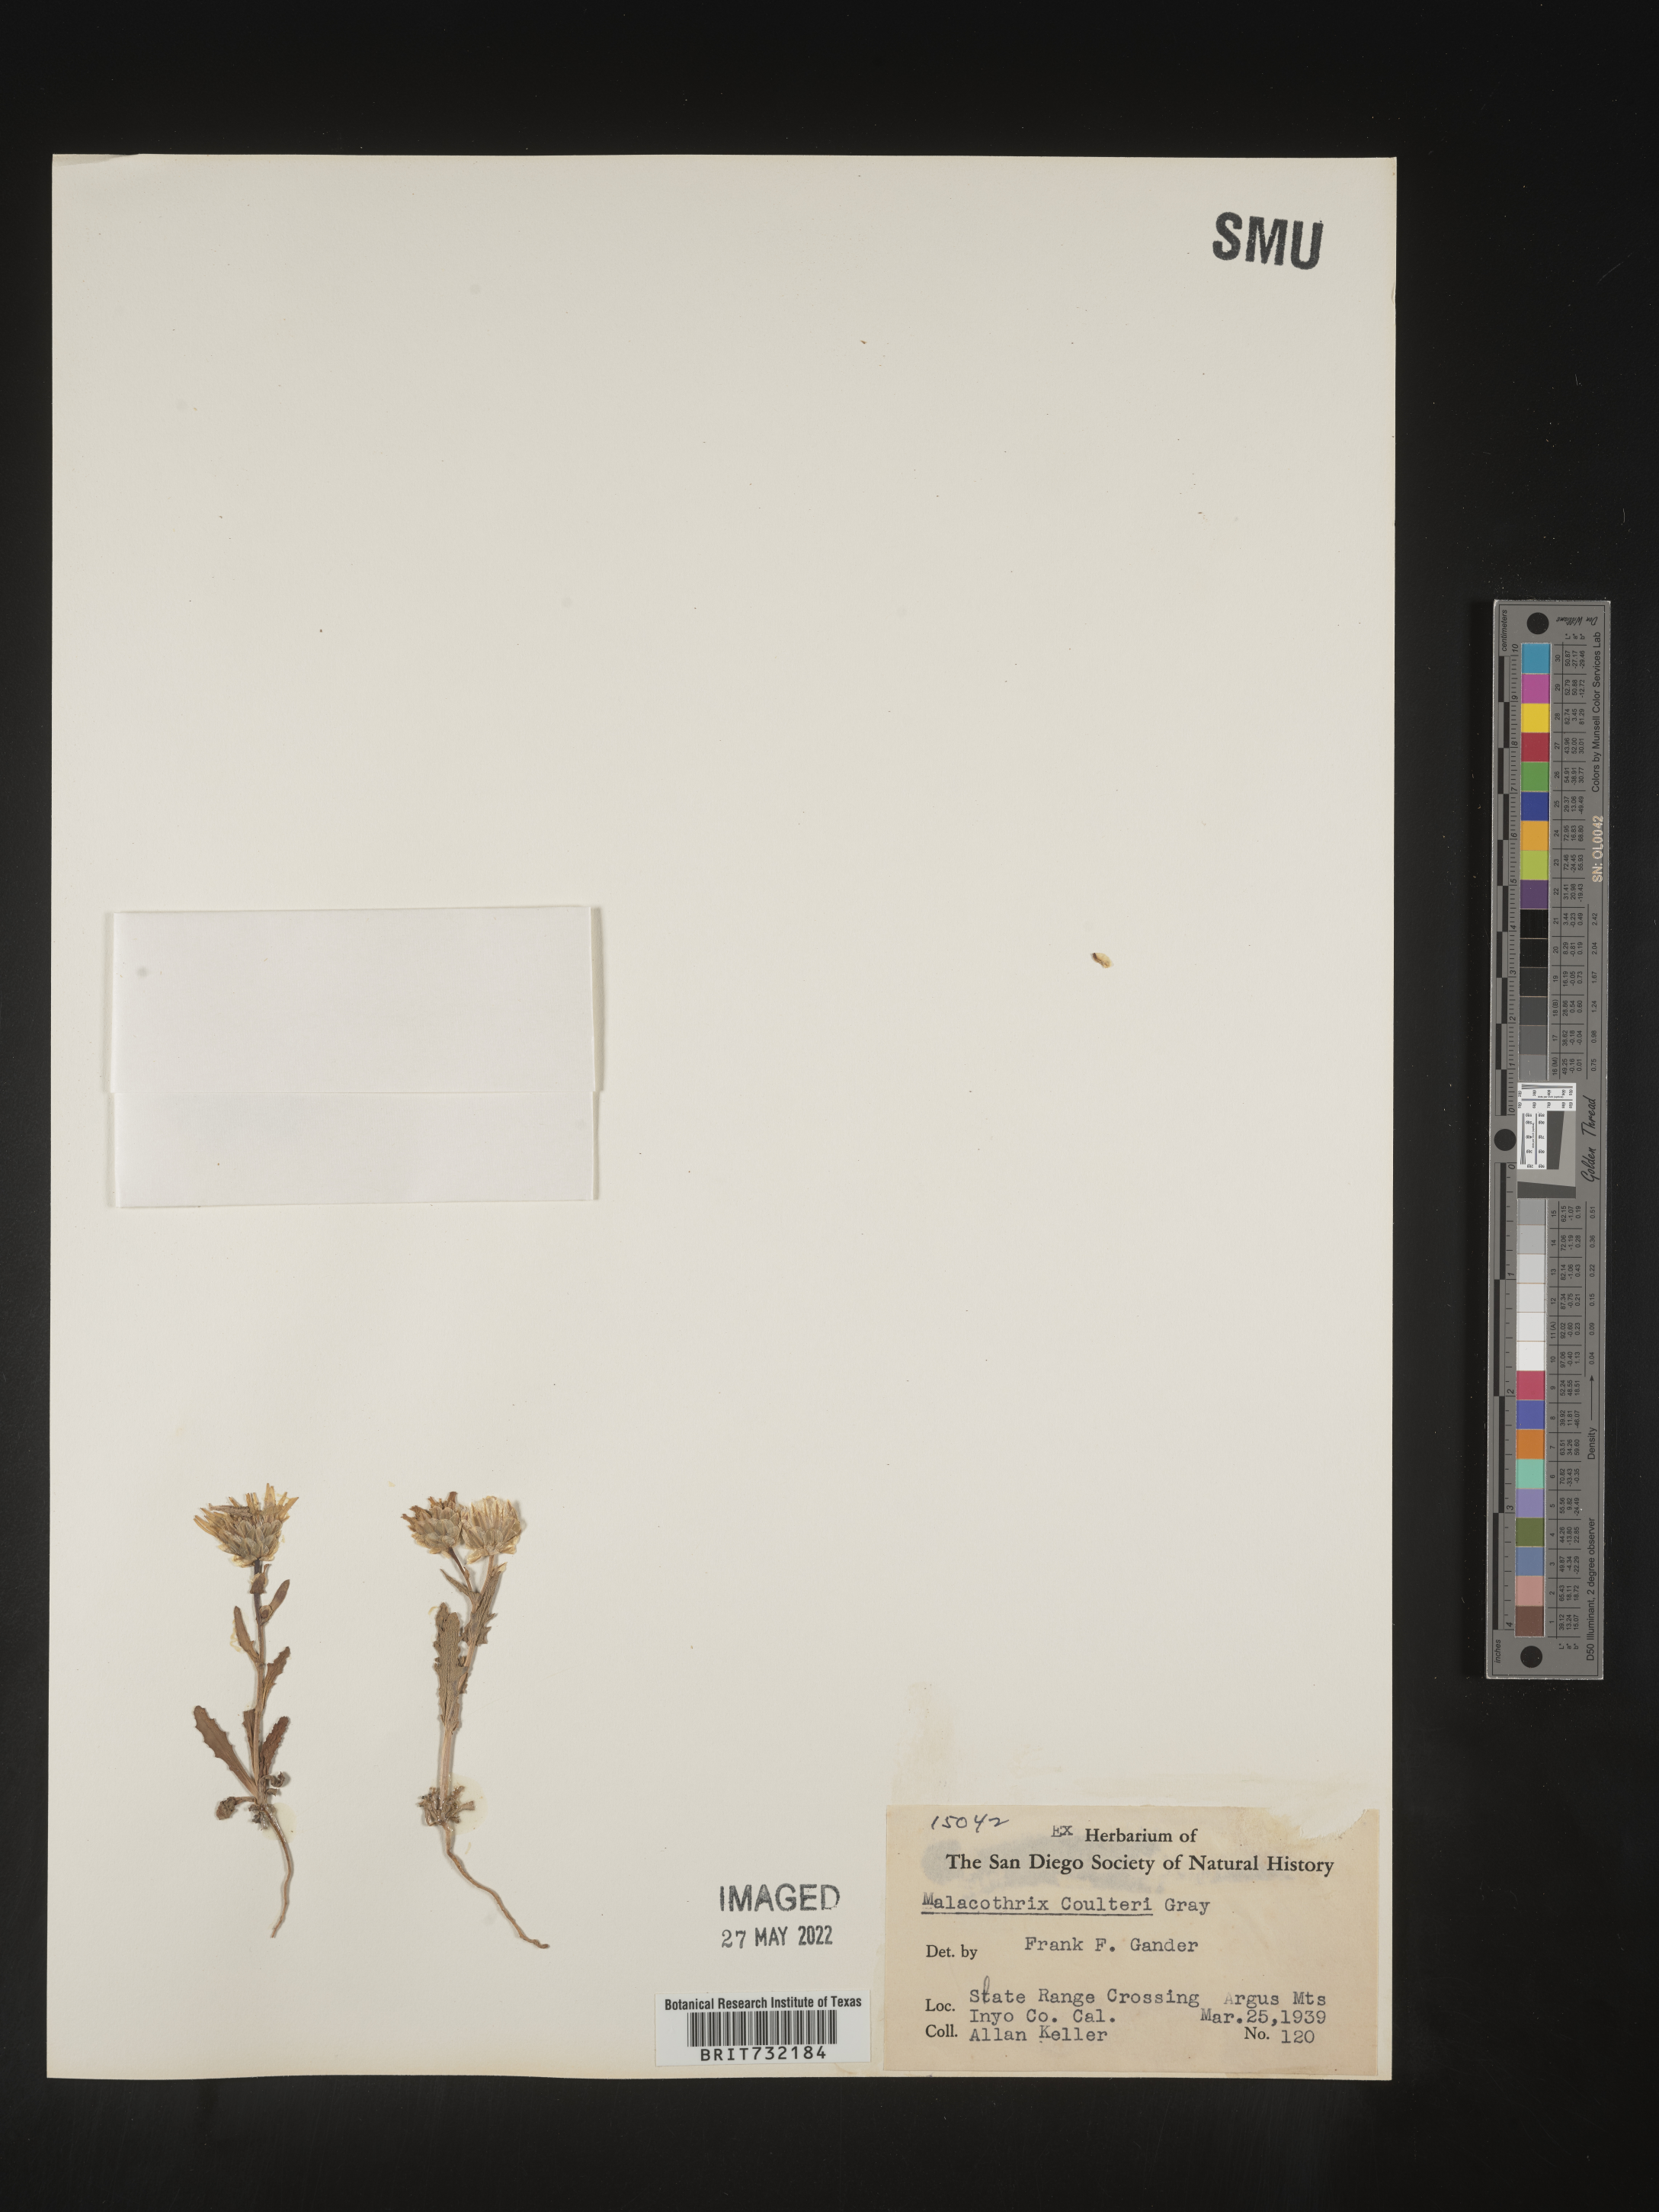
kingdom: Plantae
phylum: Tracheophyta
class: Magnoliopsida
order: Asterales
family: Asteraceae
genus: Malacothrix
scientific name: Malacothrix
